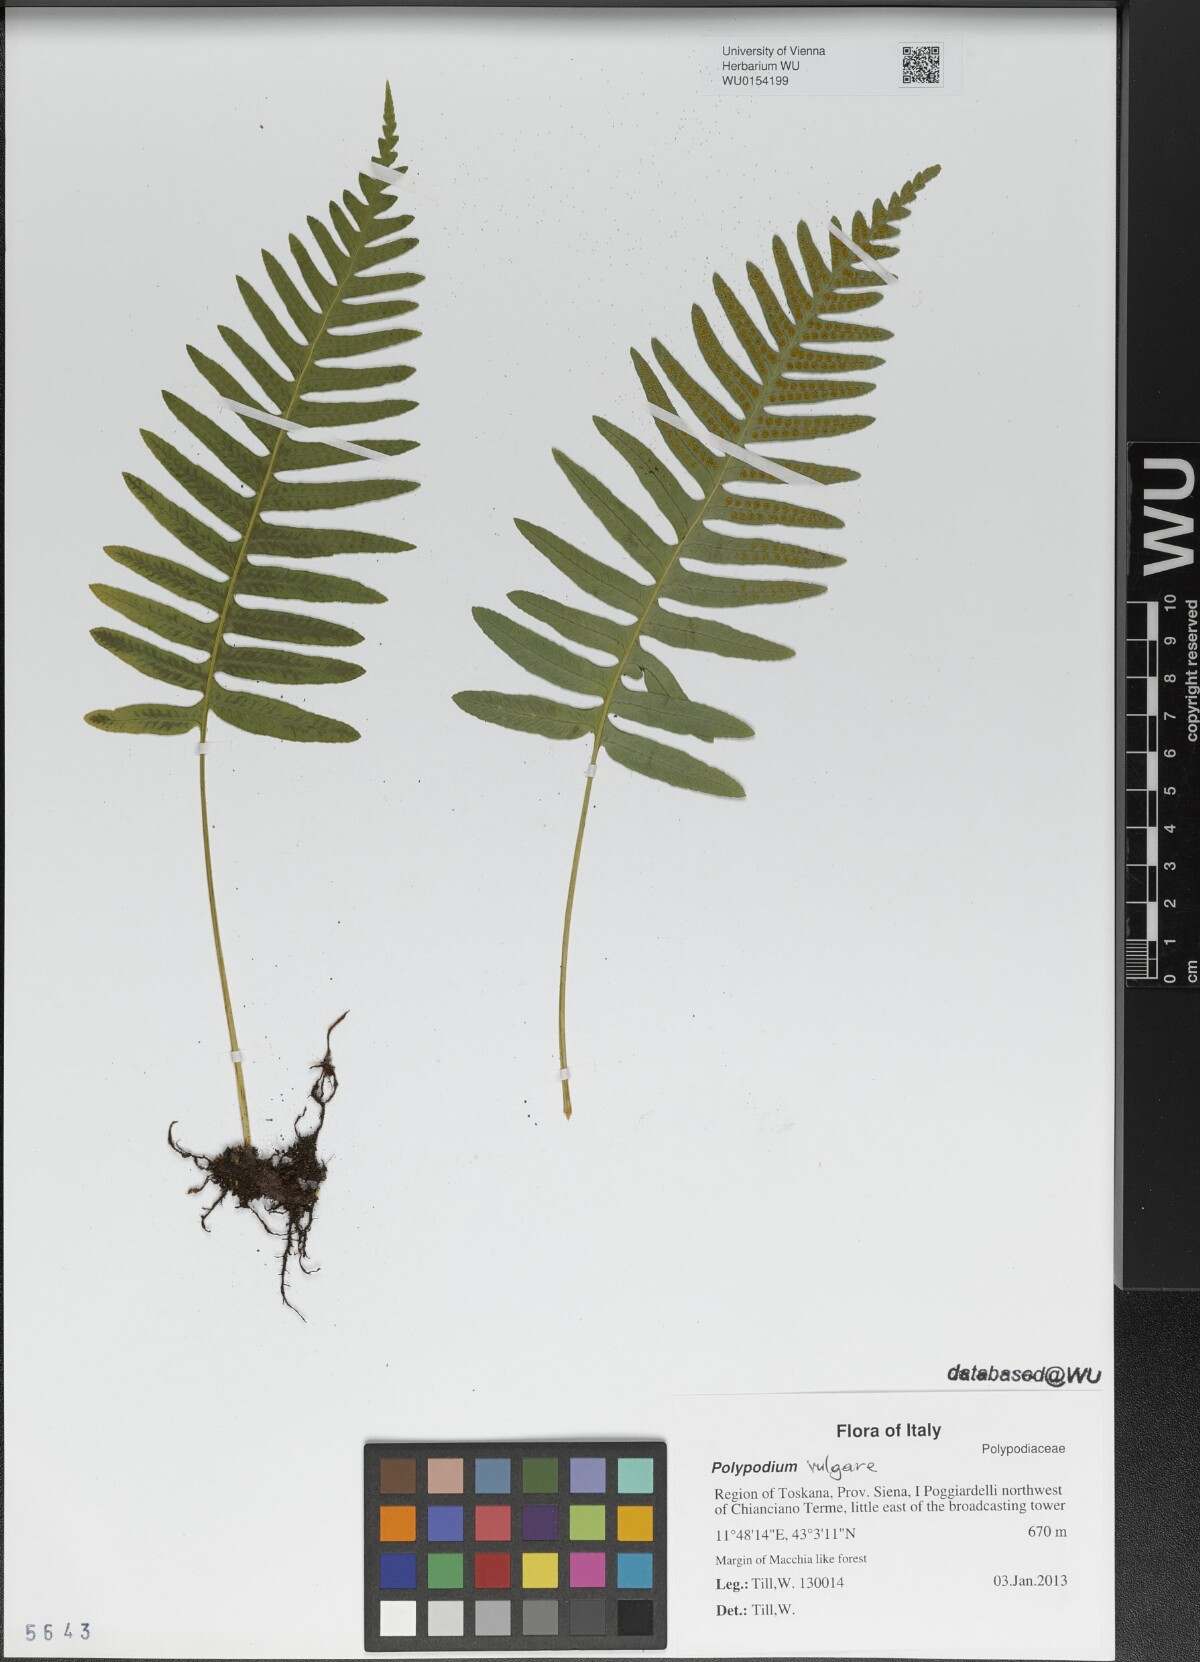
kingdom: Plantae
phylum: Tracheophyta
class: Polypodiopsida
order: Polypodiales
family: Polypodiaceae
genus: Polypodium
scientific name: Polypodium vulgare
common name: Common polypody
